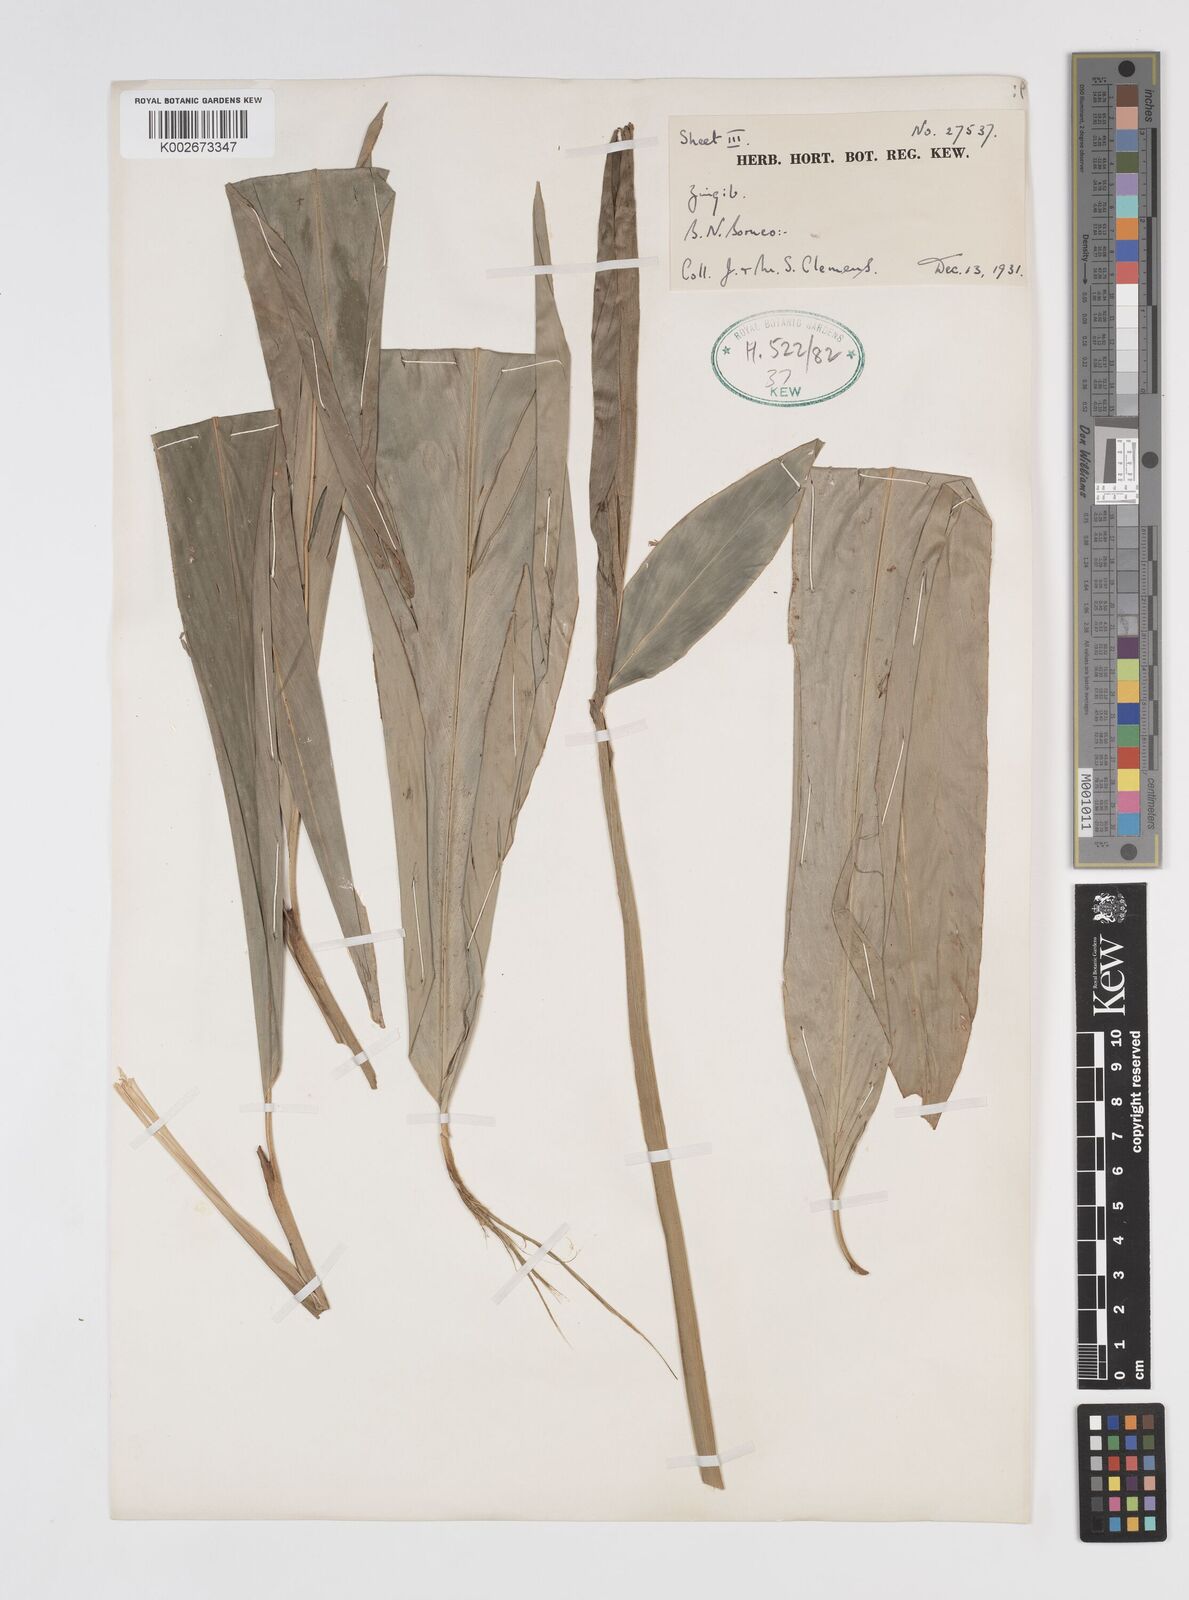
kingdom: Plantae
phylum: Tracheophyta
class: Liliopsida
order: Zingiberales
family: Zingiberaceae
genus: Sulettaria
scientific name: Sulettaria anomala
